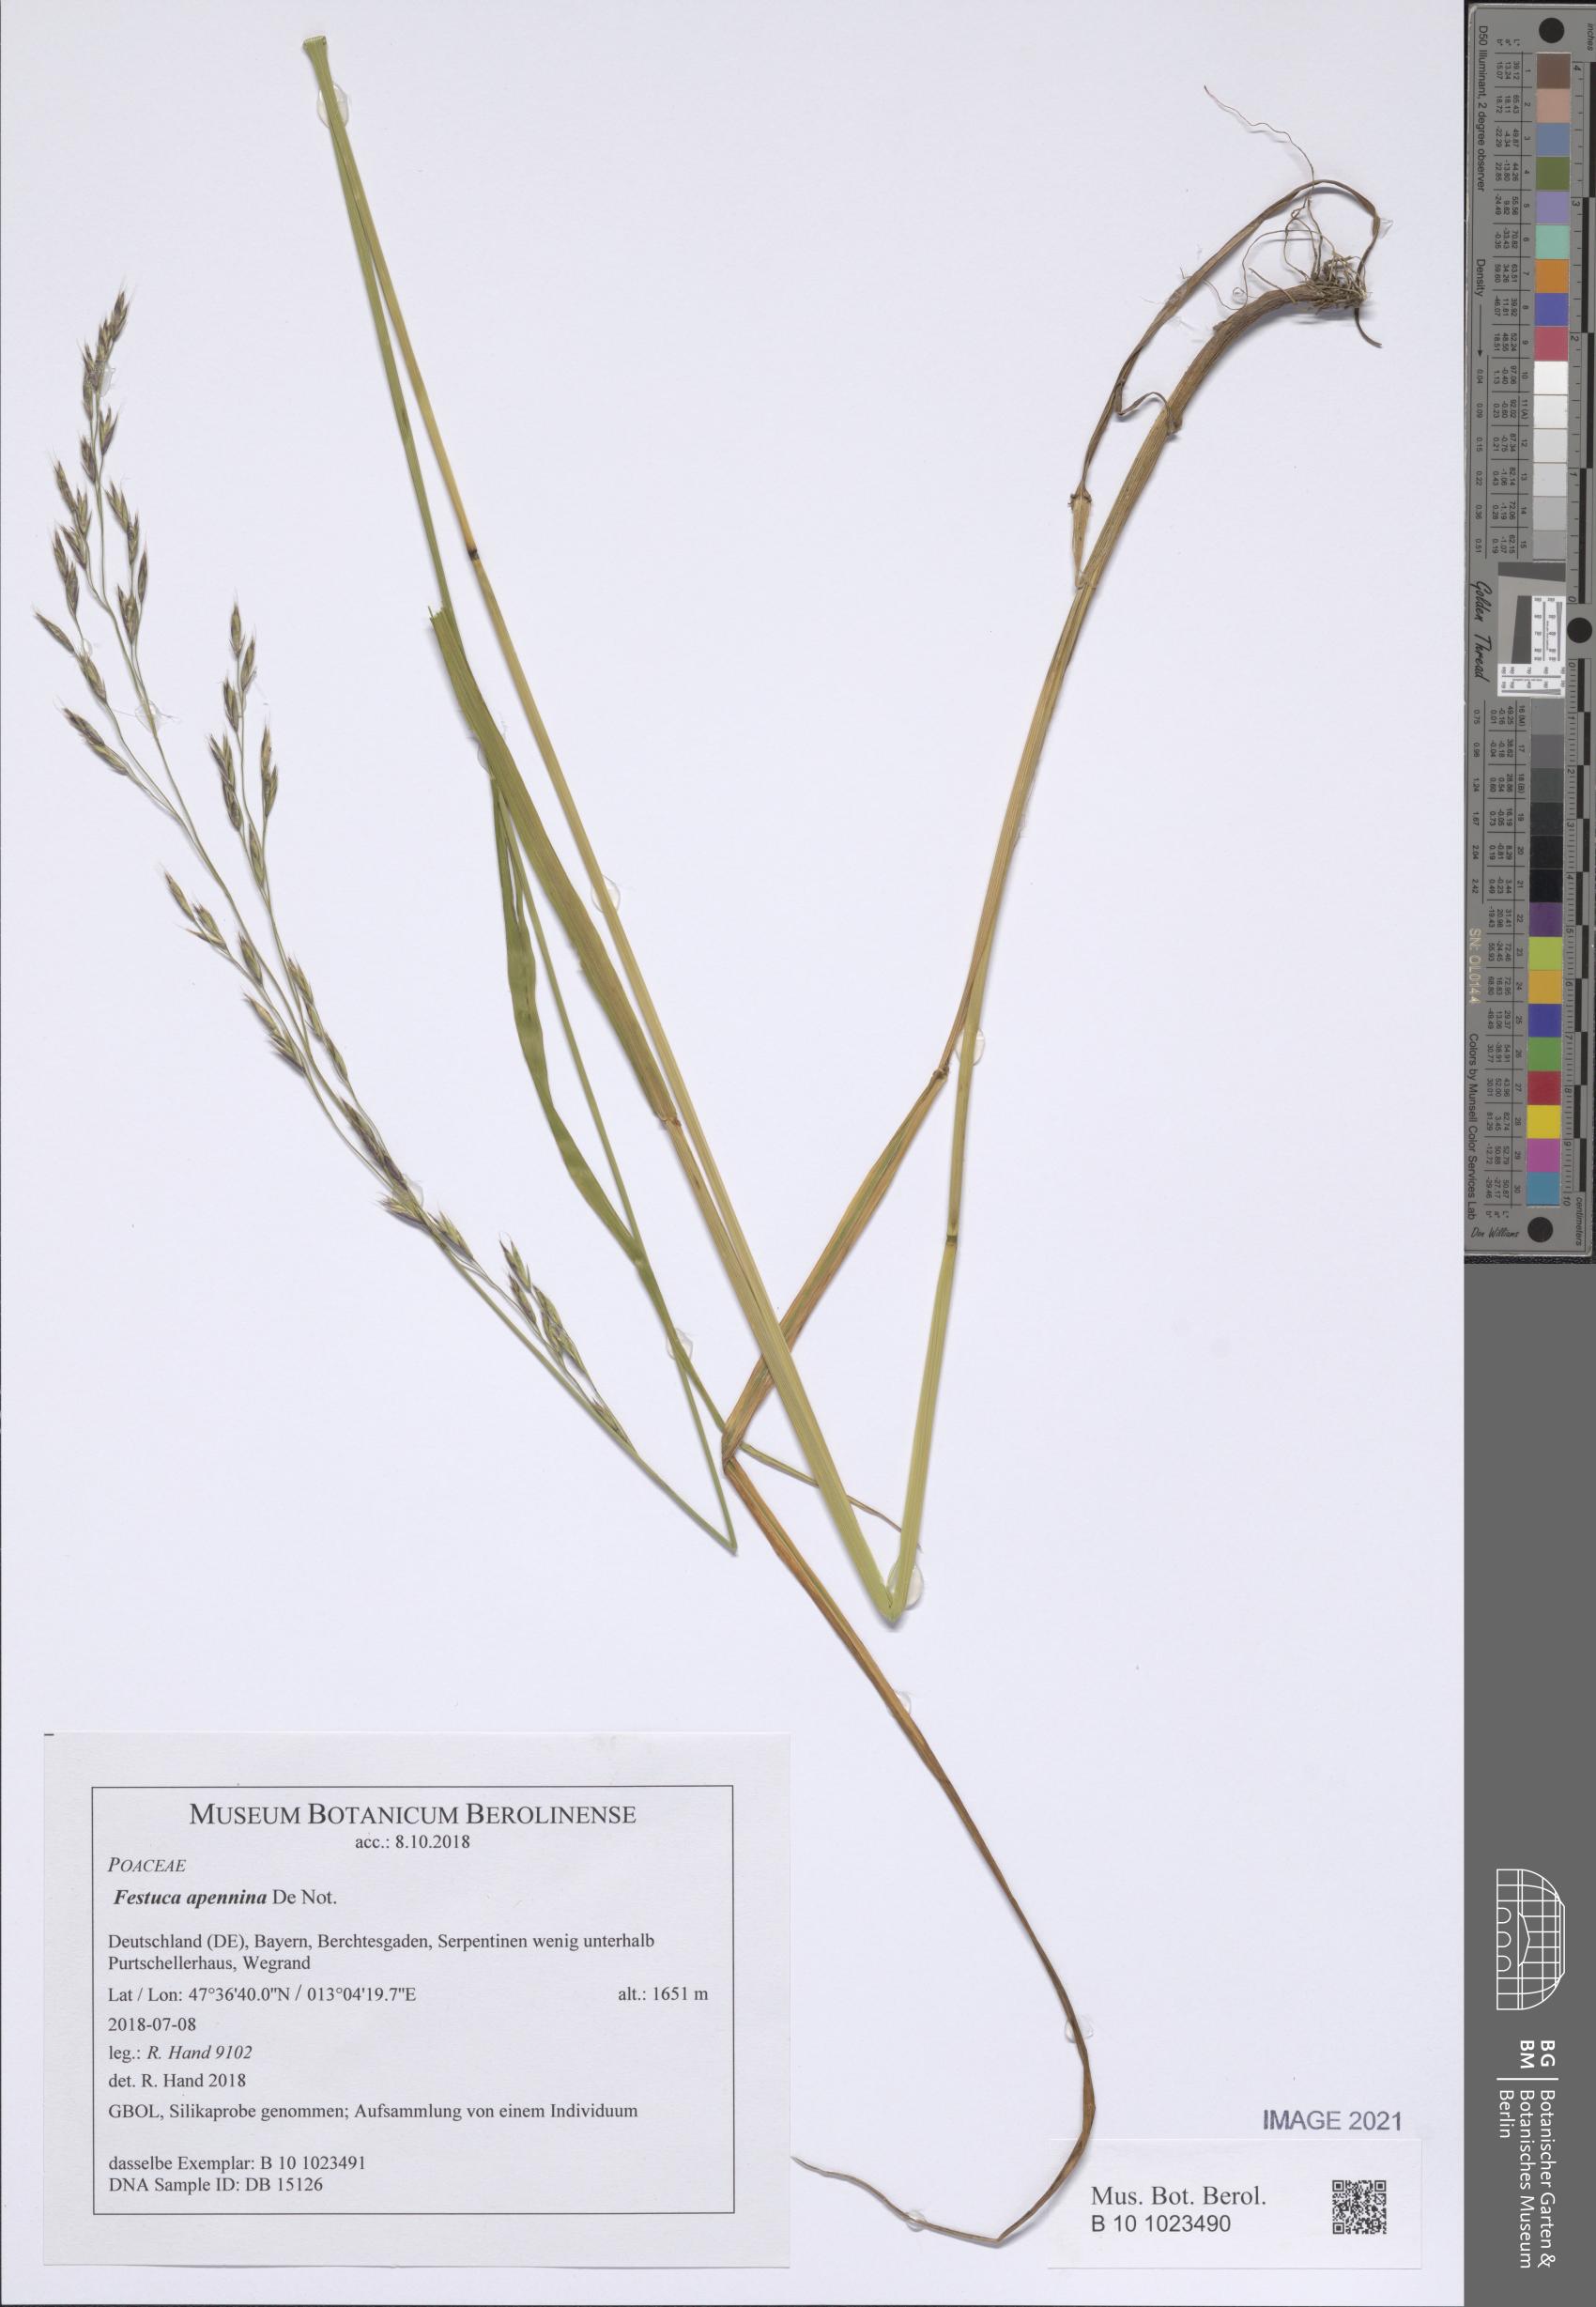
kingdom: Plantae
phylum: Tracheophyta
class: Liliopsida
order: Poales
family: Poaceae
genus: Lolium
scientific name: Lolium apenninum
